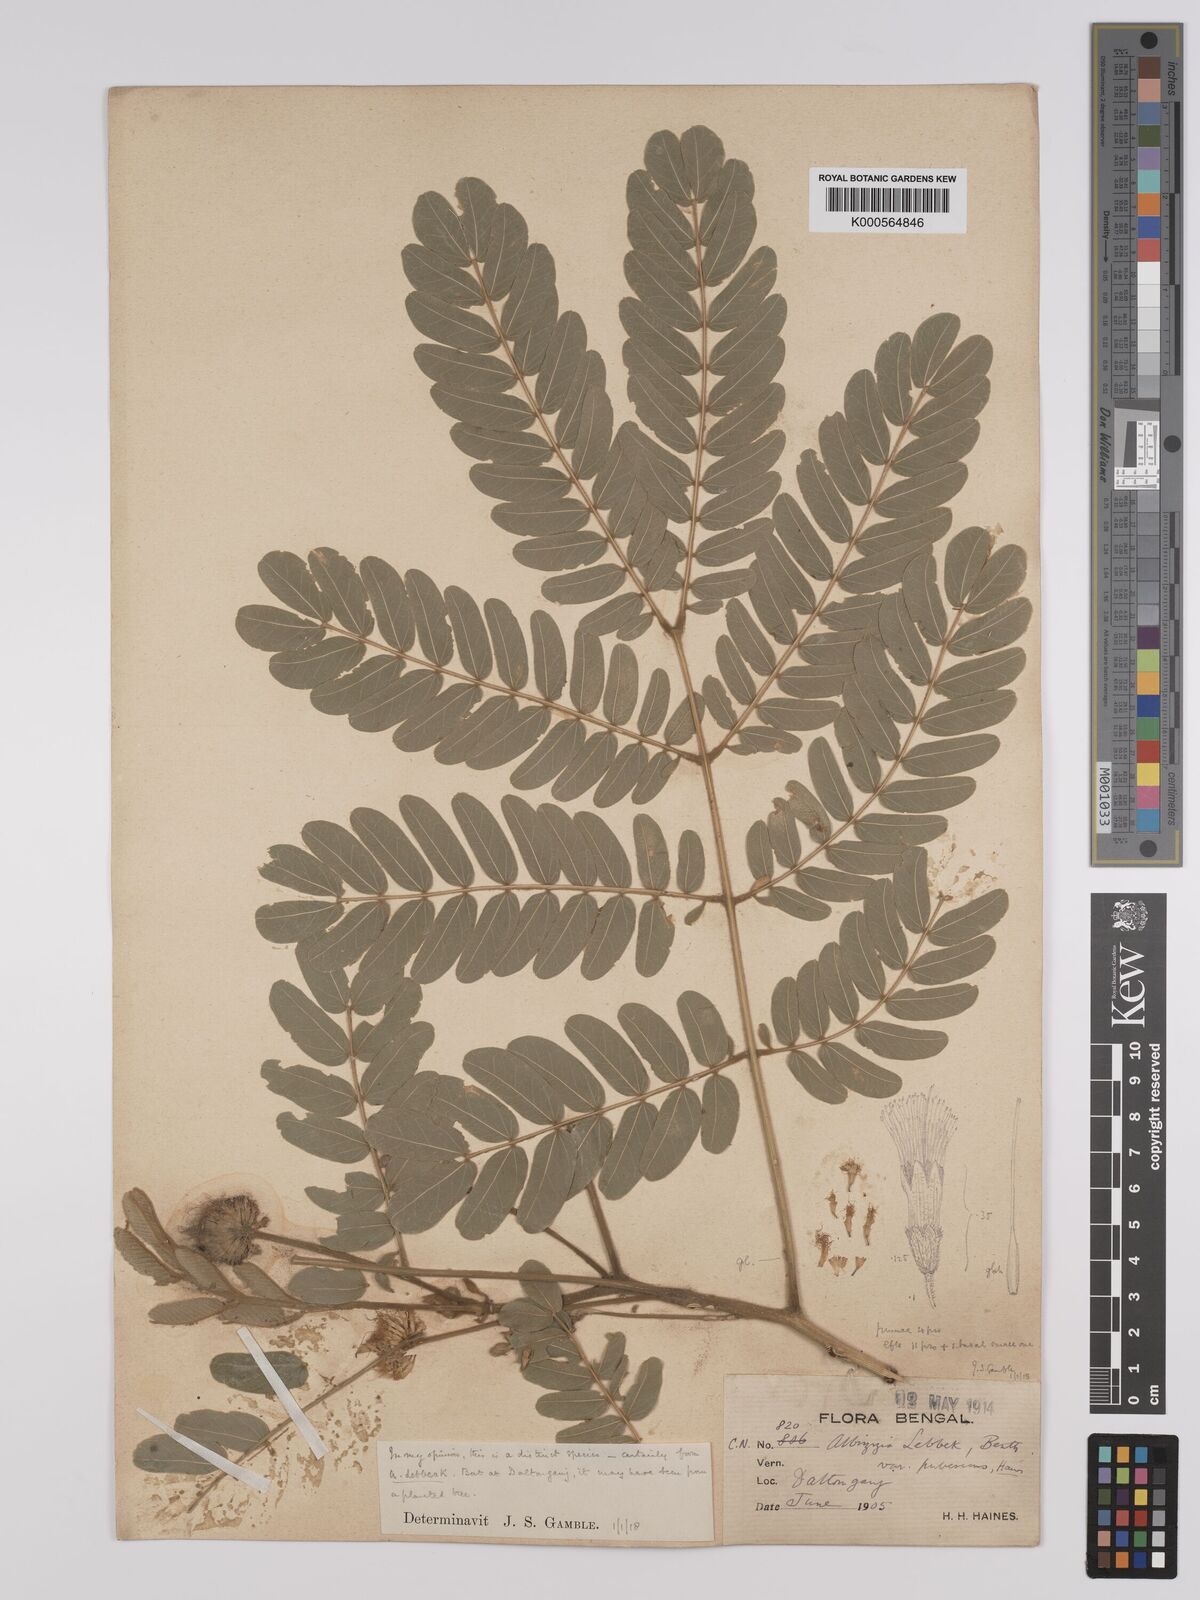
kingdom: Plantae
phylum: Tracheophyta
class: Magnoliopsida
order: Fabales
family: Fabaceae
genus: Albizia
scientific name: Albizia lebbeck
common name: Woman's tongue
